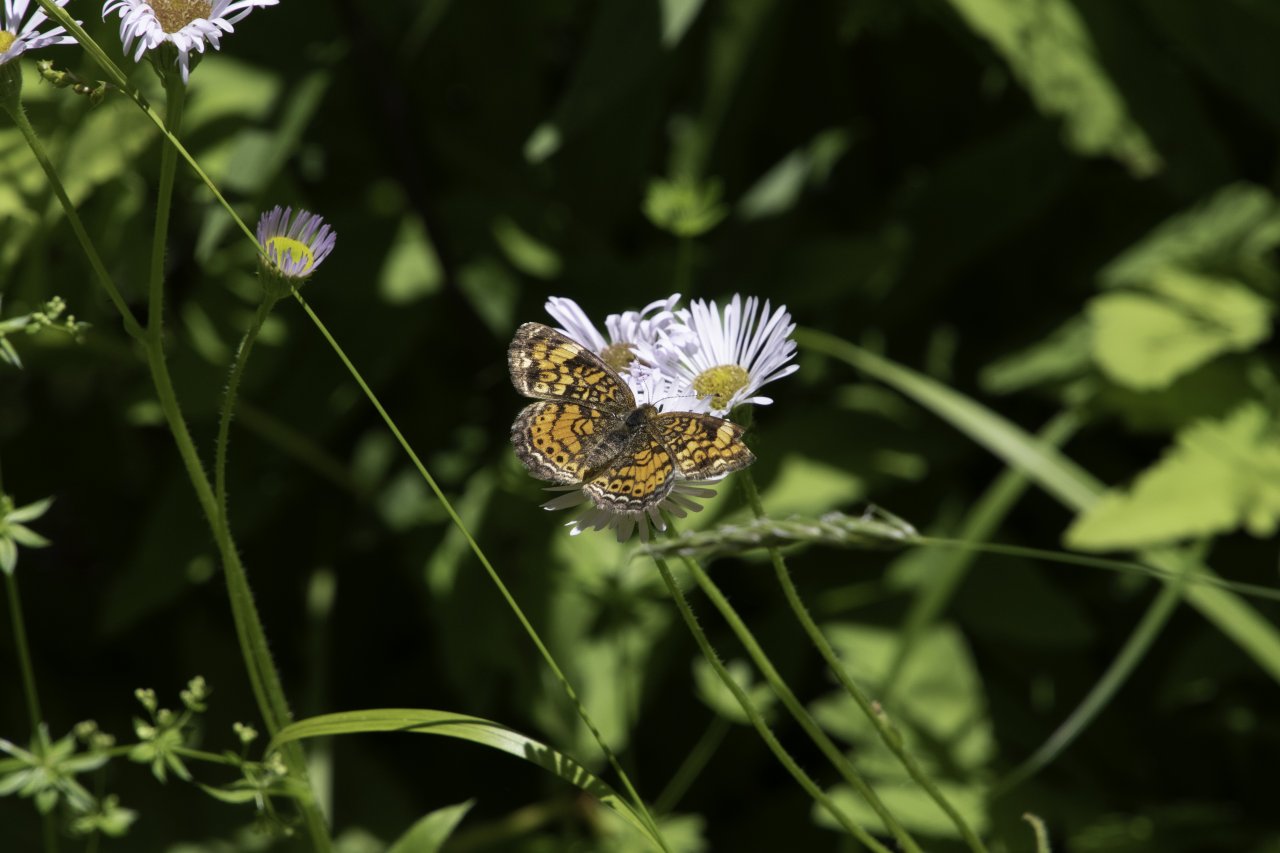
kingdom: Animalia
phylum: Arthropoda
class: Insecta
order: Lepidoptera
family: Nymphalidae
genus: Phyciodes
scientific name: Phyciodes
